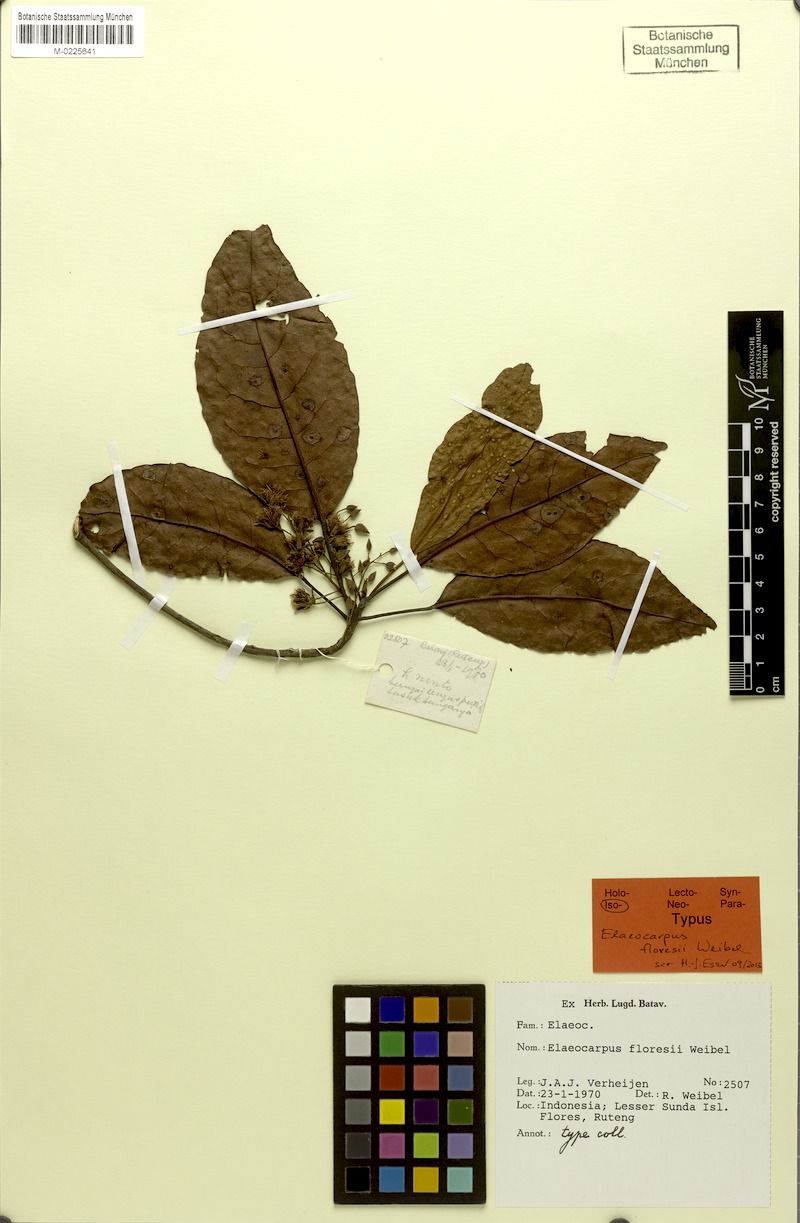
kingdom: Plantae
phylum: Tracheophyta
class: Magnoliopsida
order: Oxalidales
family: Elaeocarpaceae
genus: Elaeocarpus
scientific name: Elaeocarpus floresii
